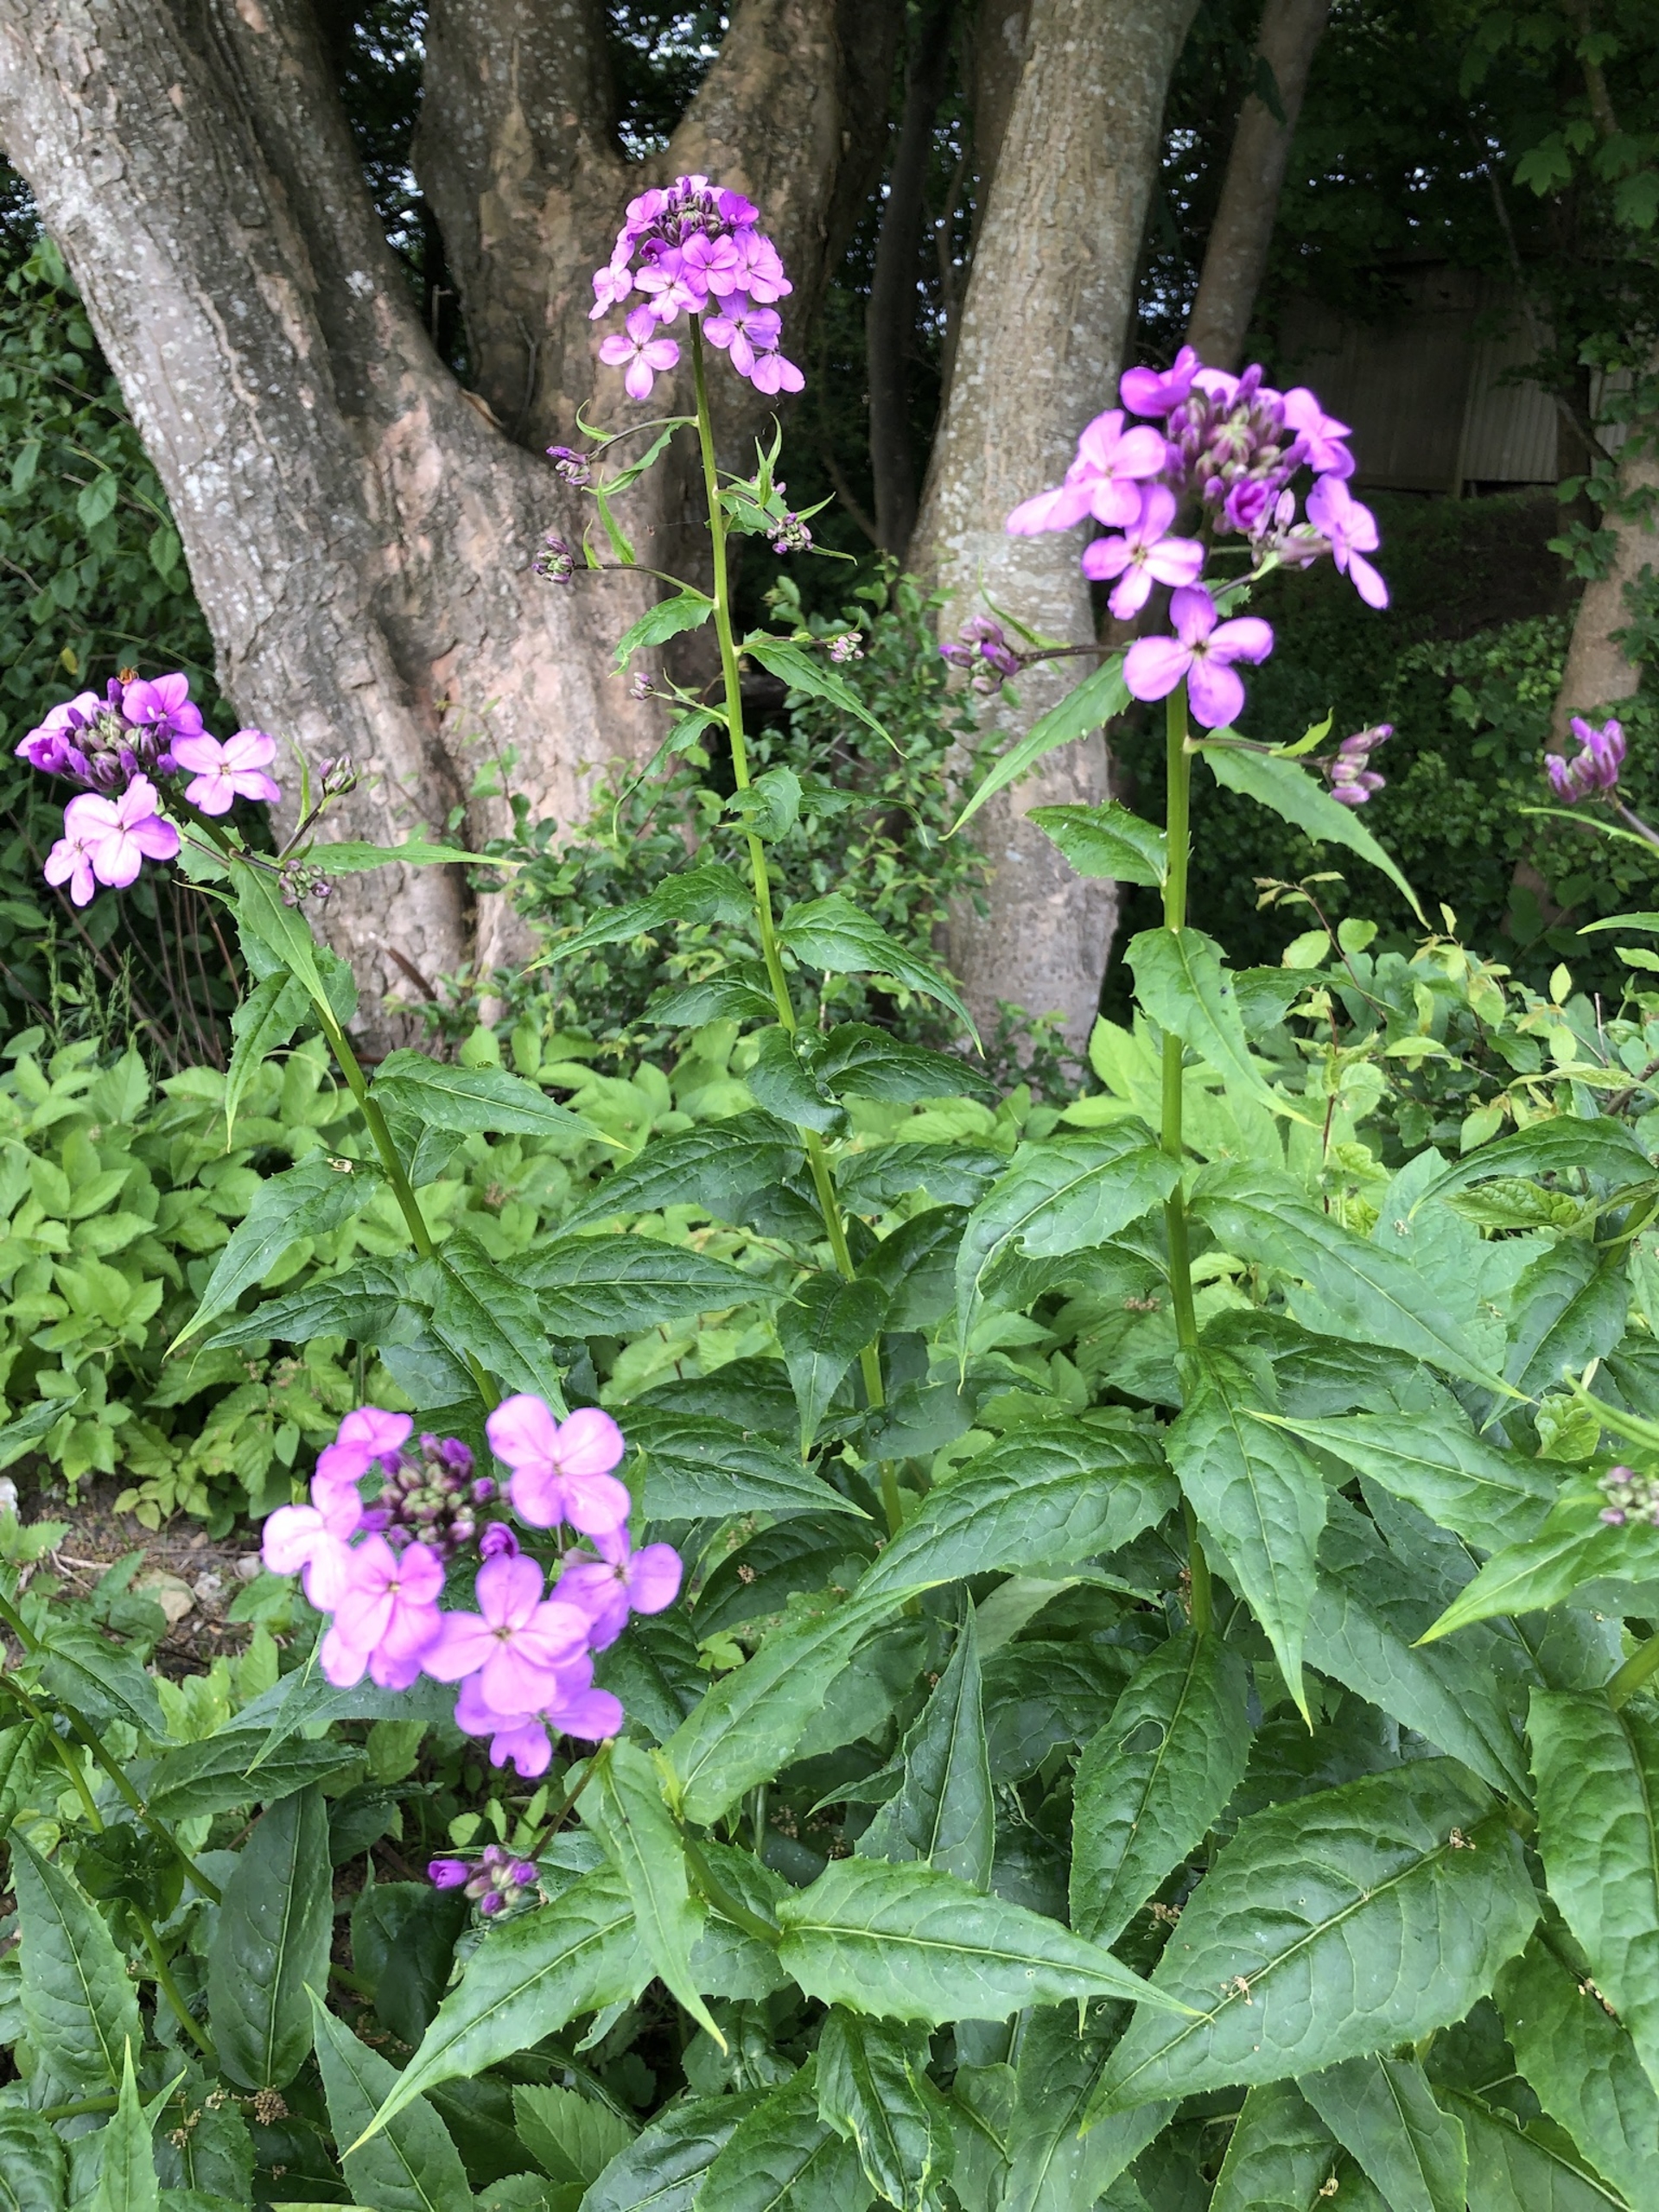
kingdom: Plantae
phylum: Tracheophyta
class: Magnoliopsida
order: Brassicales
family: Brassicaceae
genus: Hesperis
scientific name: Hesperis matronalis
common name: Aftenstjerne
